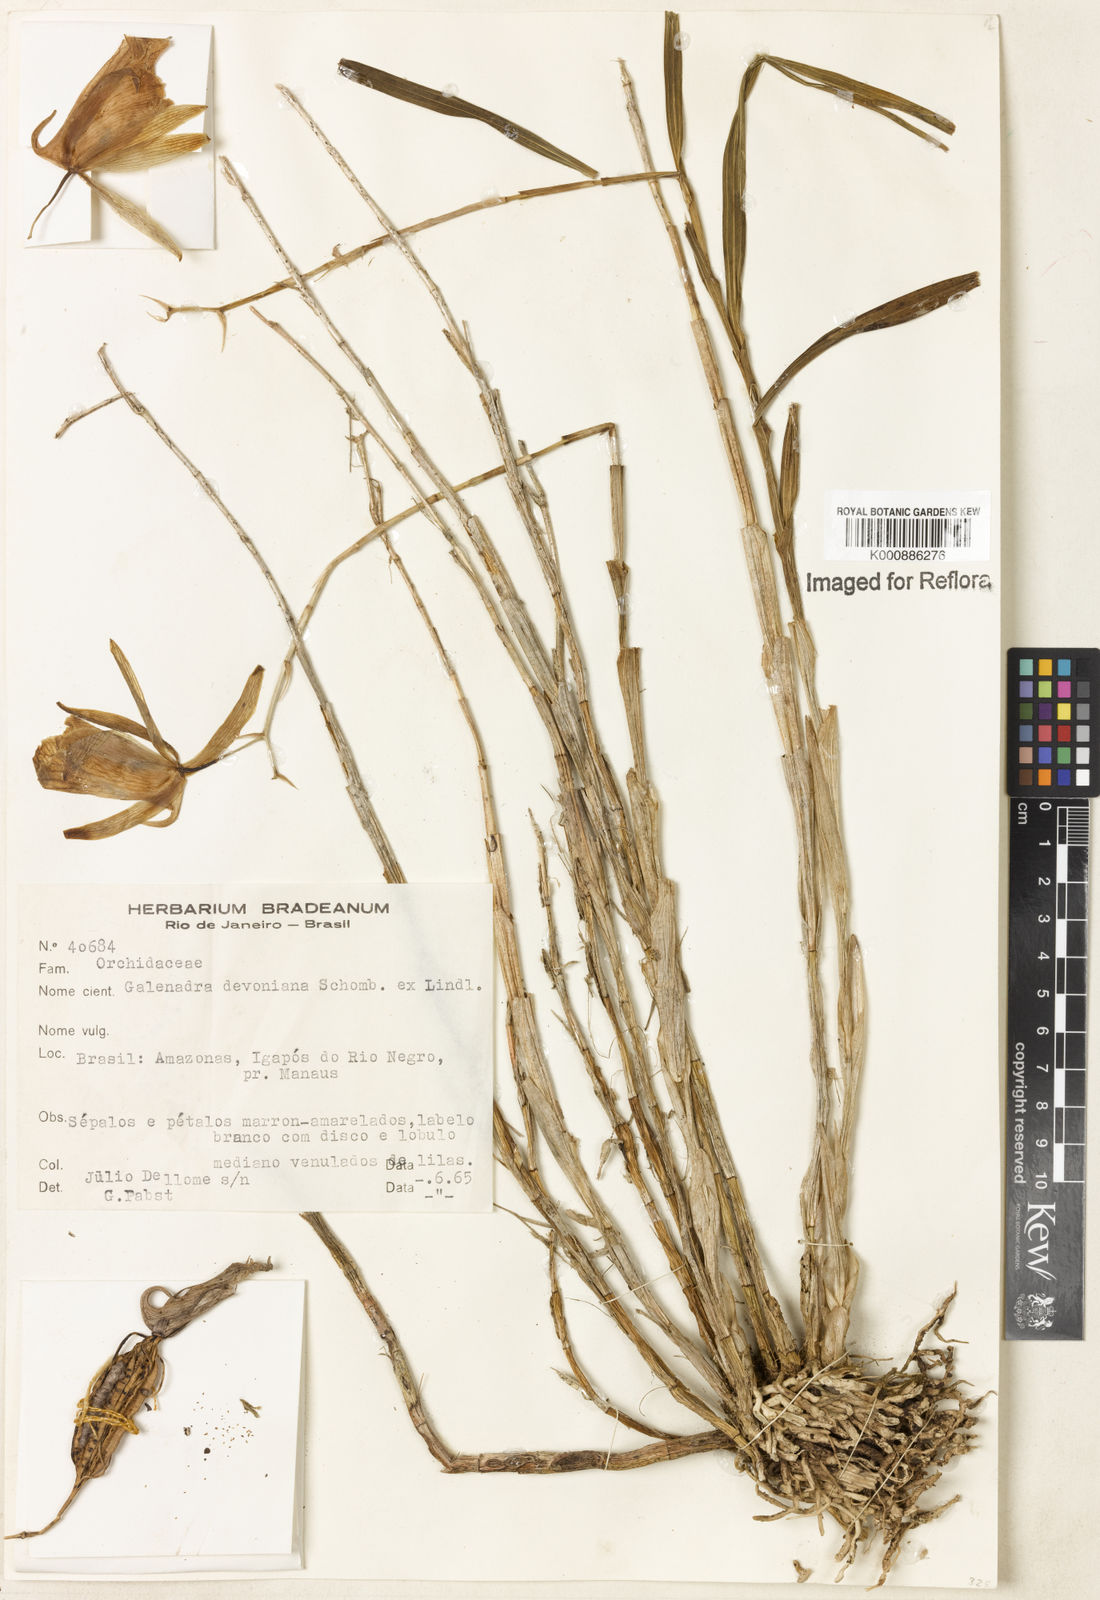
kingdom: Plantae
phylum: Tracheophyta
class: Liliopsida
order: Asparagales
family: Orchidaceae
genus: Galeandra
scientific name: Galeandra devoniana
